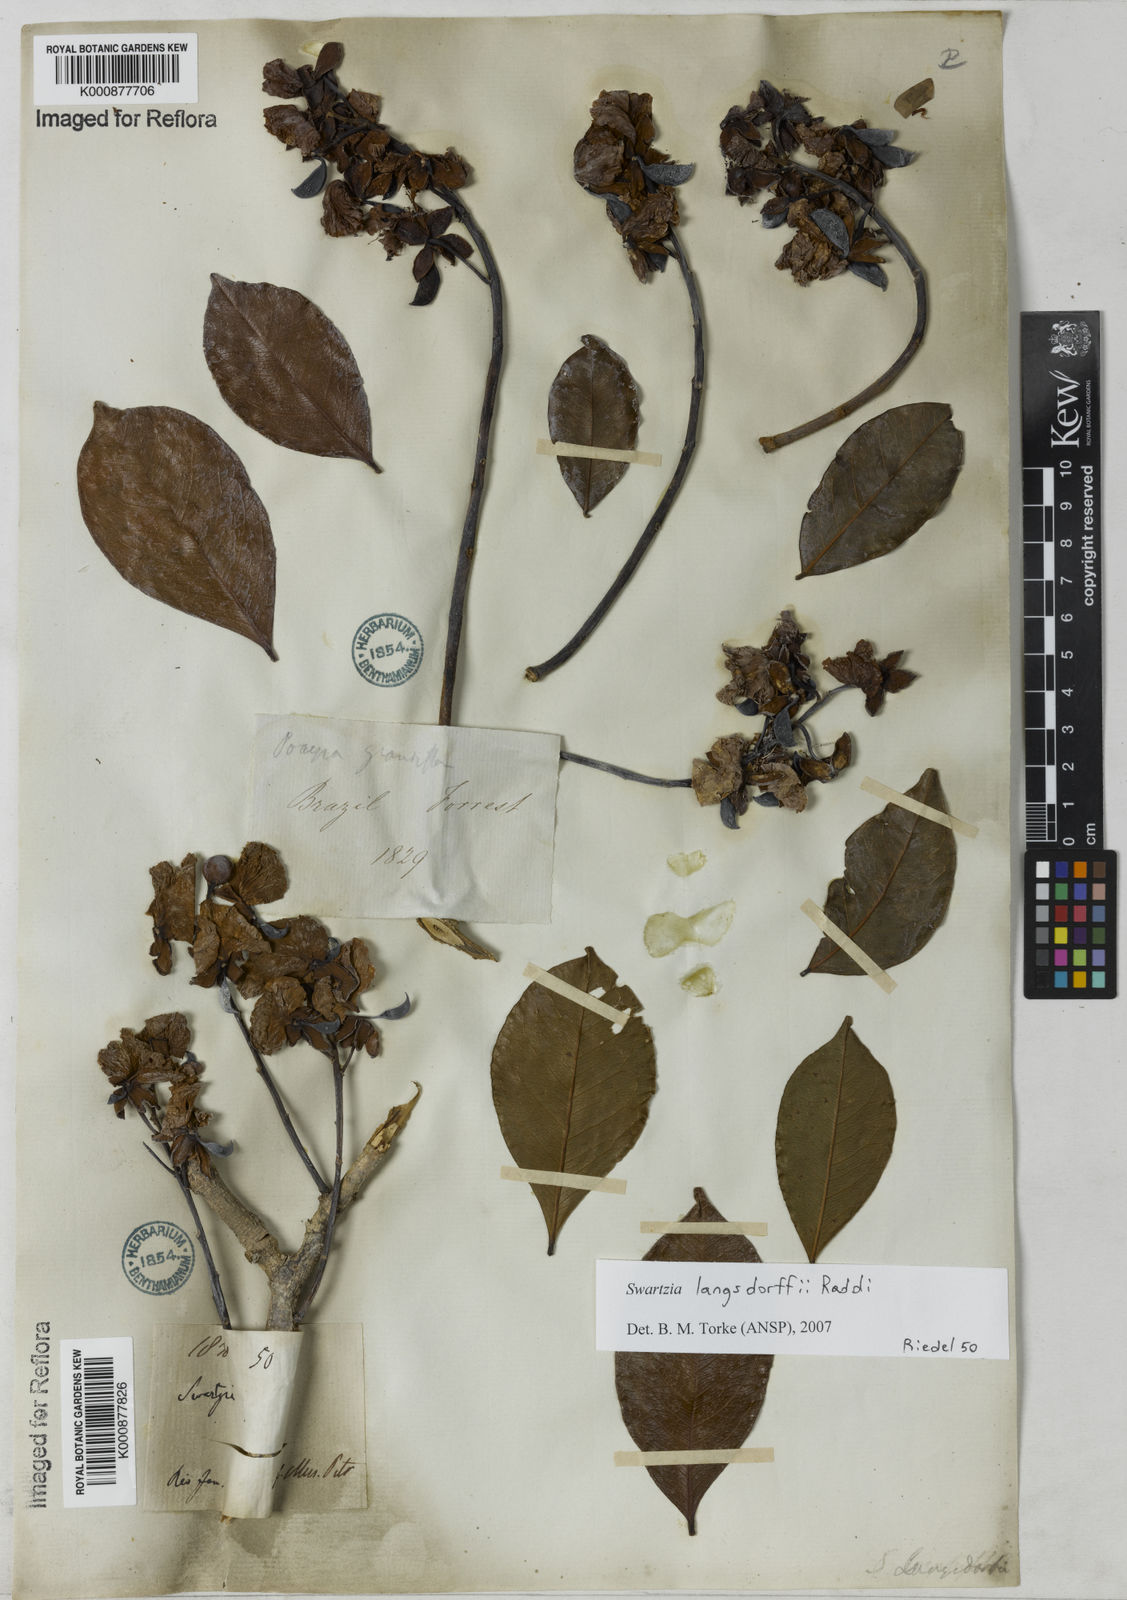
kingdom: Plantae
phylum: Tracheophyta
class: Magnoliopsida
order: Fabales
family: Fabaceae
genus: Swartzia
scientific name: Swartzia langsdorffii
